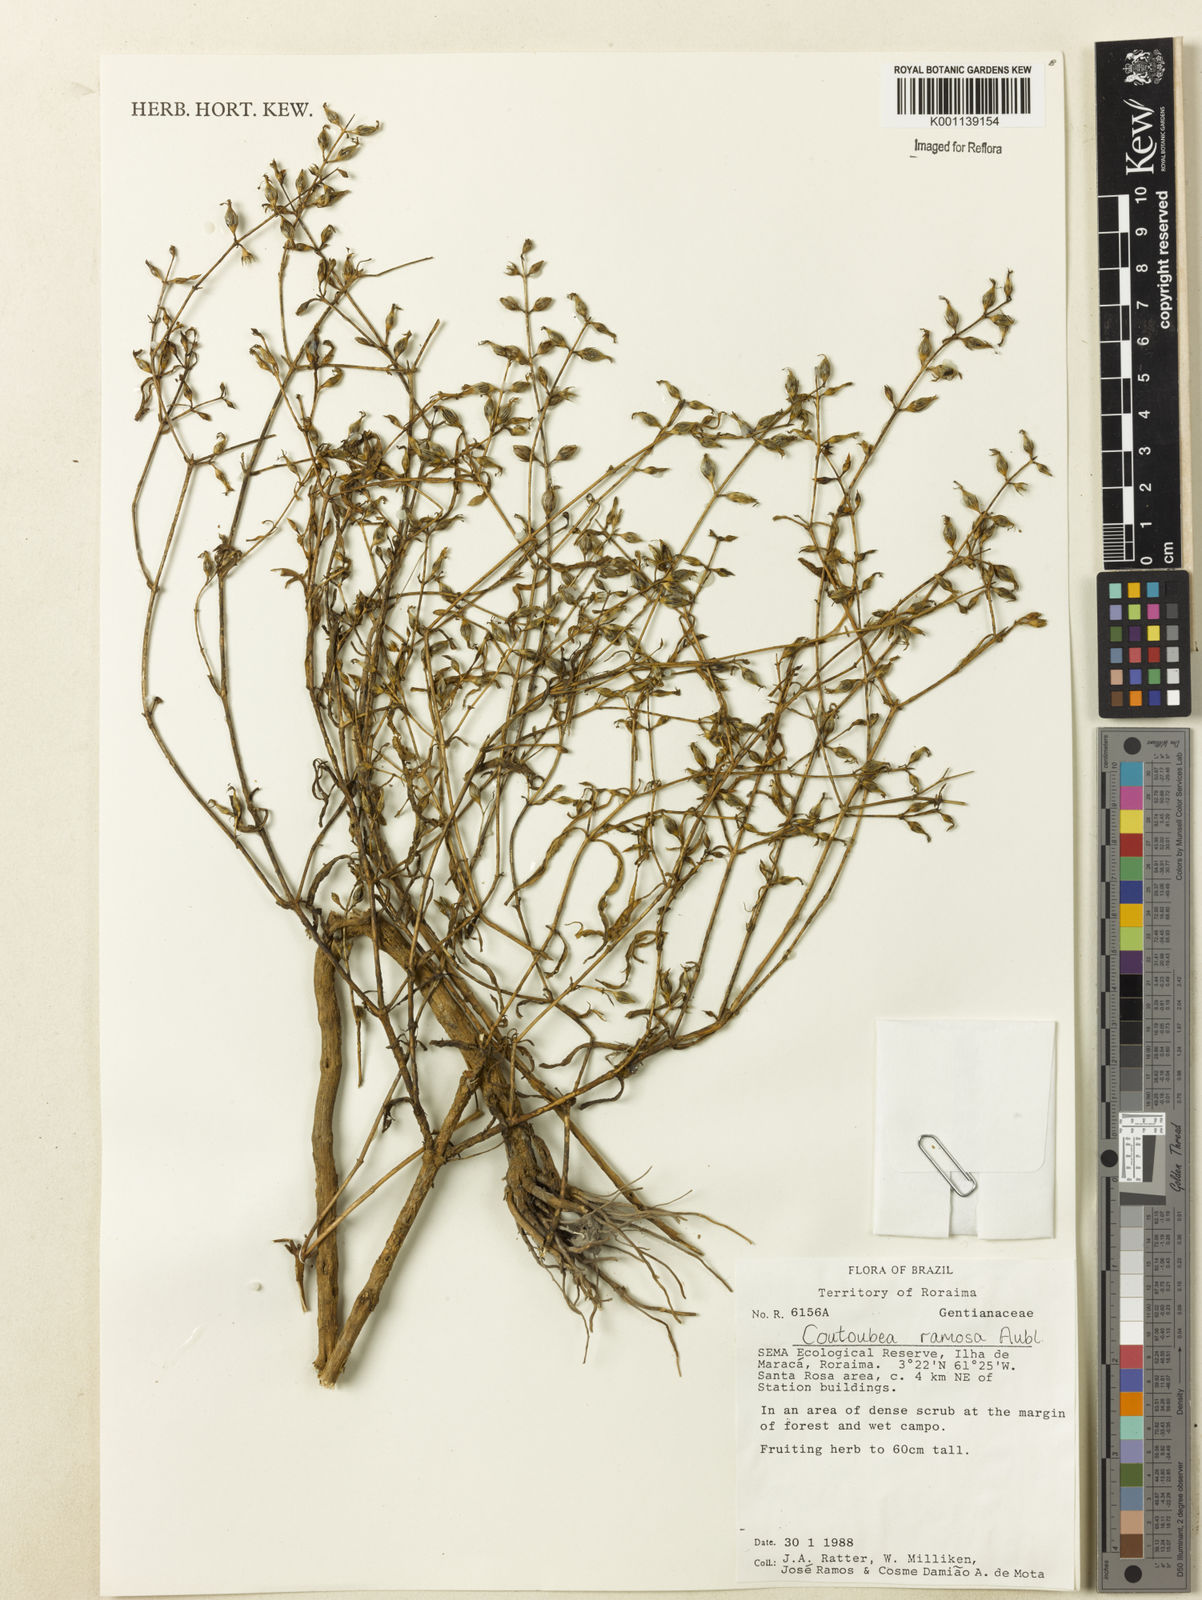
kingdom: Plantae
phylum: Tracheophyta
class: Magnoliopsida
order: Gentianales
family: Gentianaceae
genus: Coutoubea
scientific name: Coutoubea ramosa
